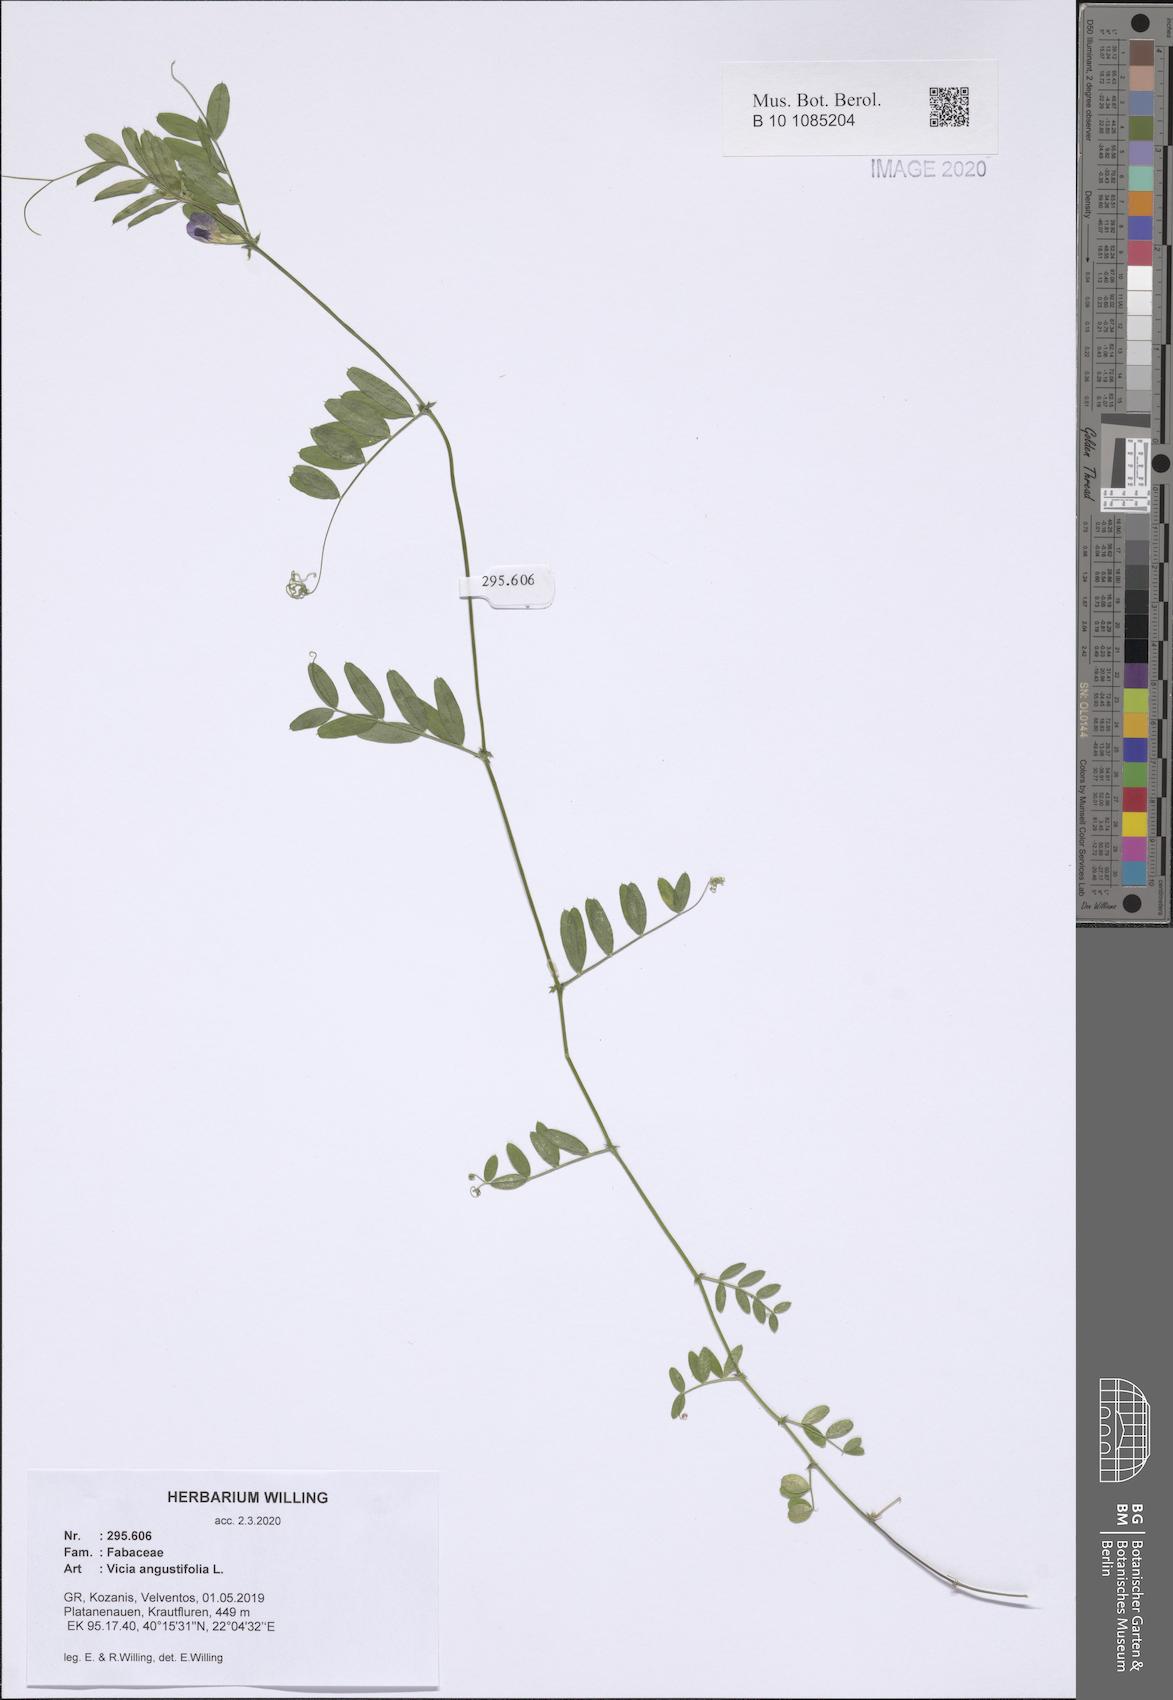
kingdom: Plantae
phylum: Tracheophyta
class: Magnoliopsida
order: Fabales
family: Fabaceae
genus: Vicia
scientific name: Vicia sativa
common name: Garden vetch
